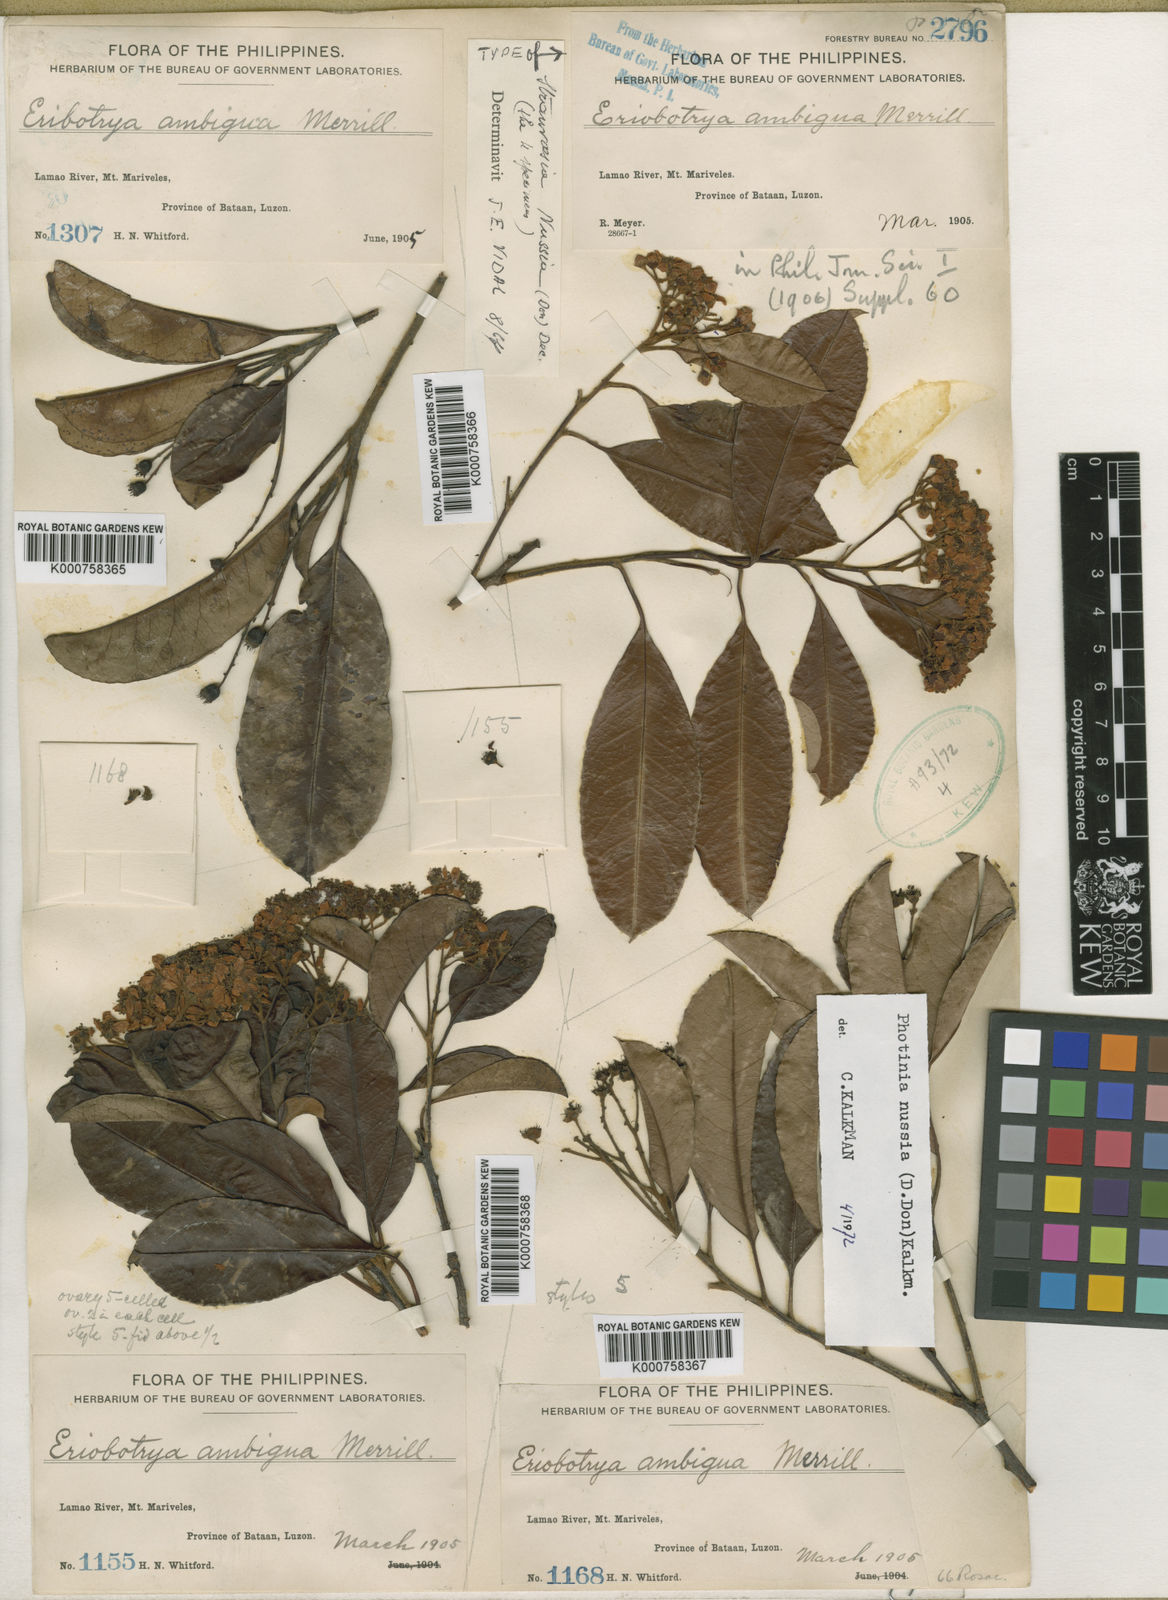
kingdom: Plantae
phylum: Tracheophyta
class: Magnoliopsida
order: Rosales
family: Rosaceae
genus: Stranvaesia
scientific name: Stranvaesia nussia
